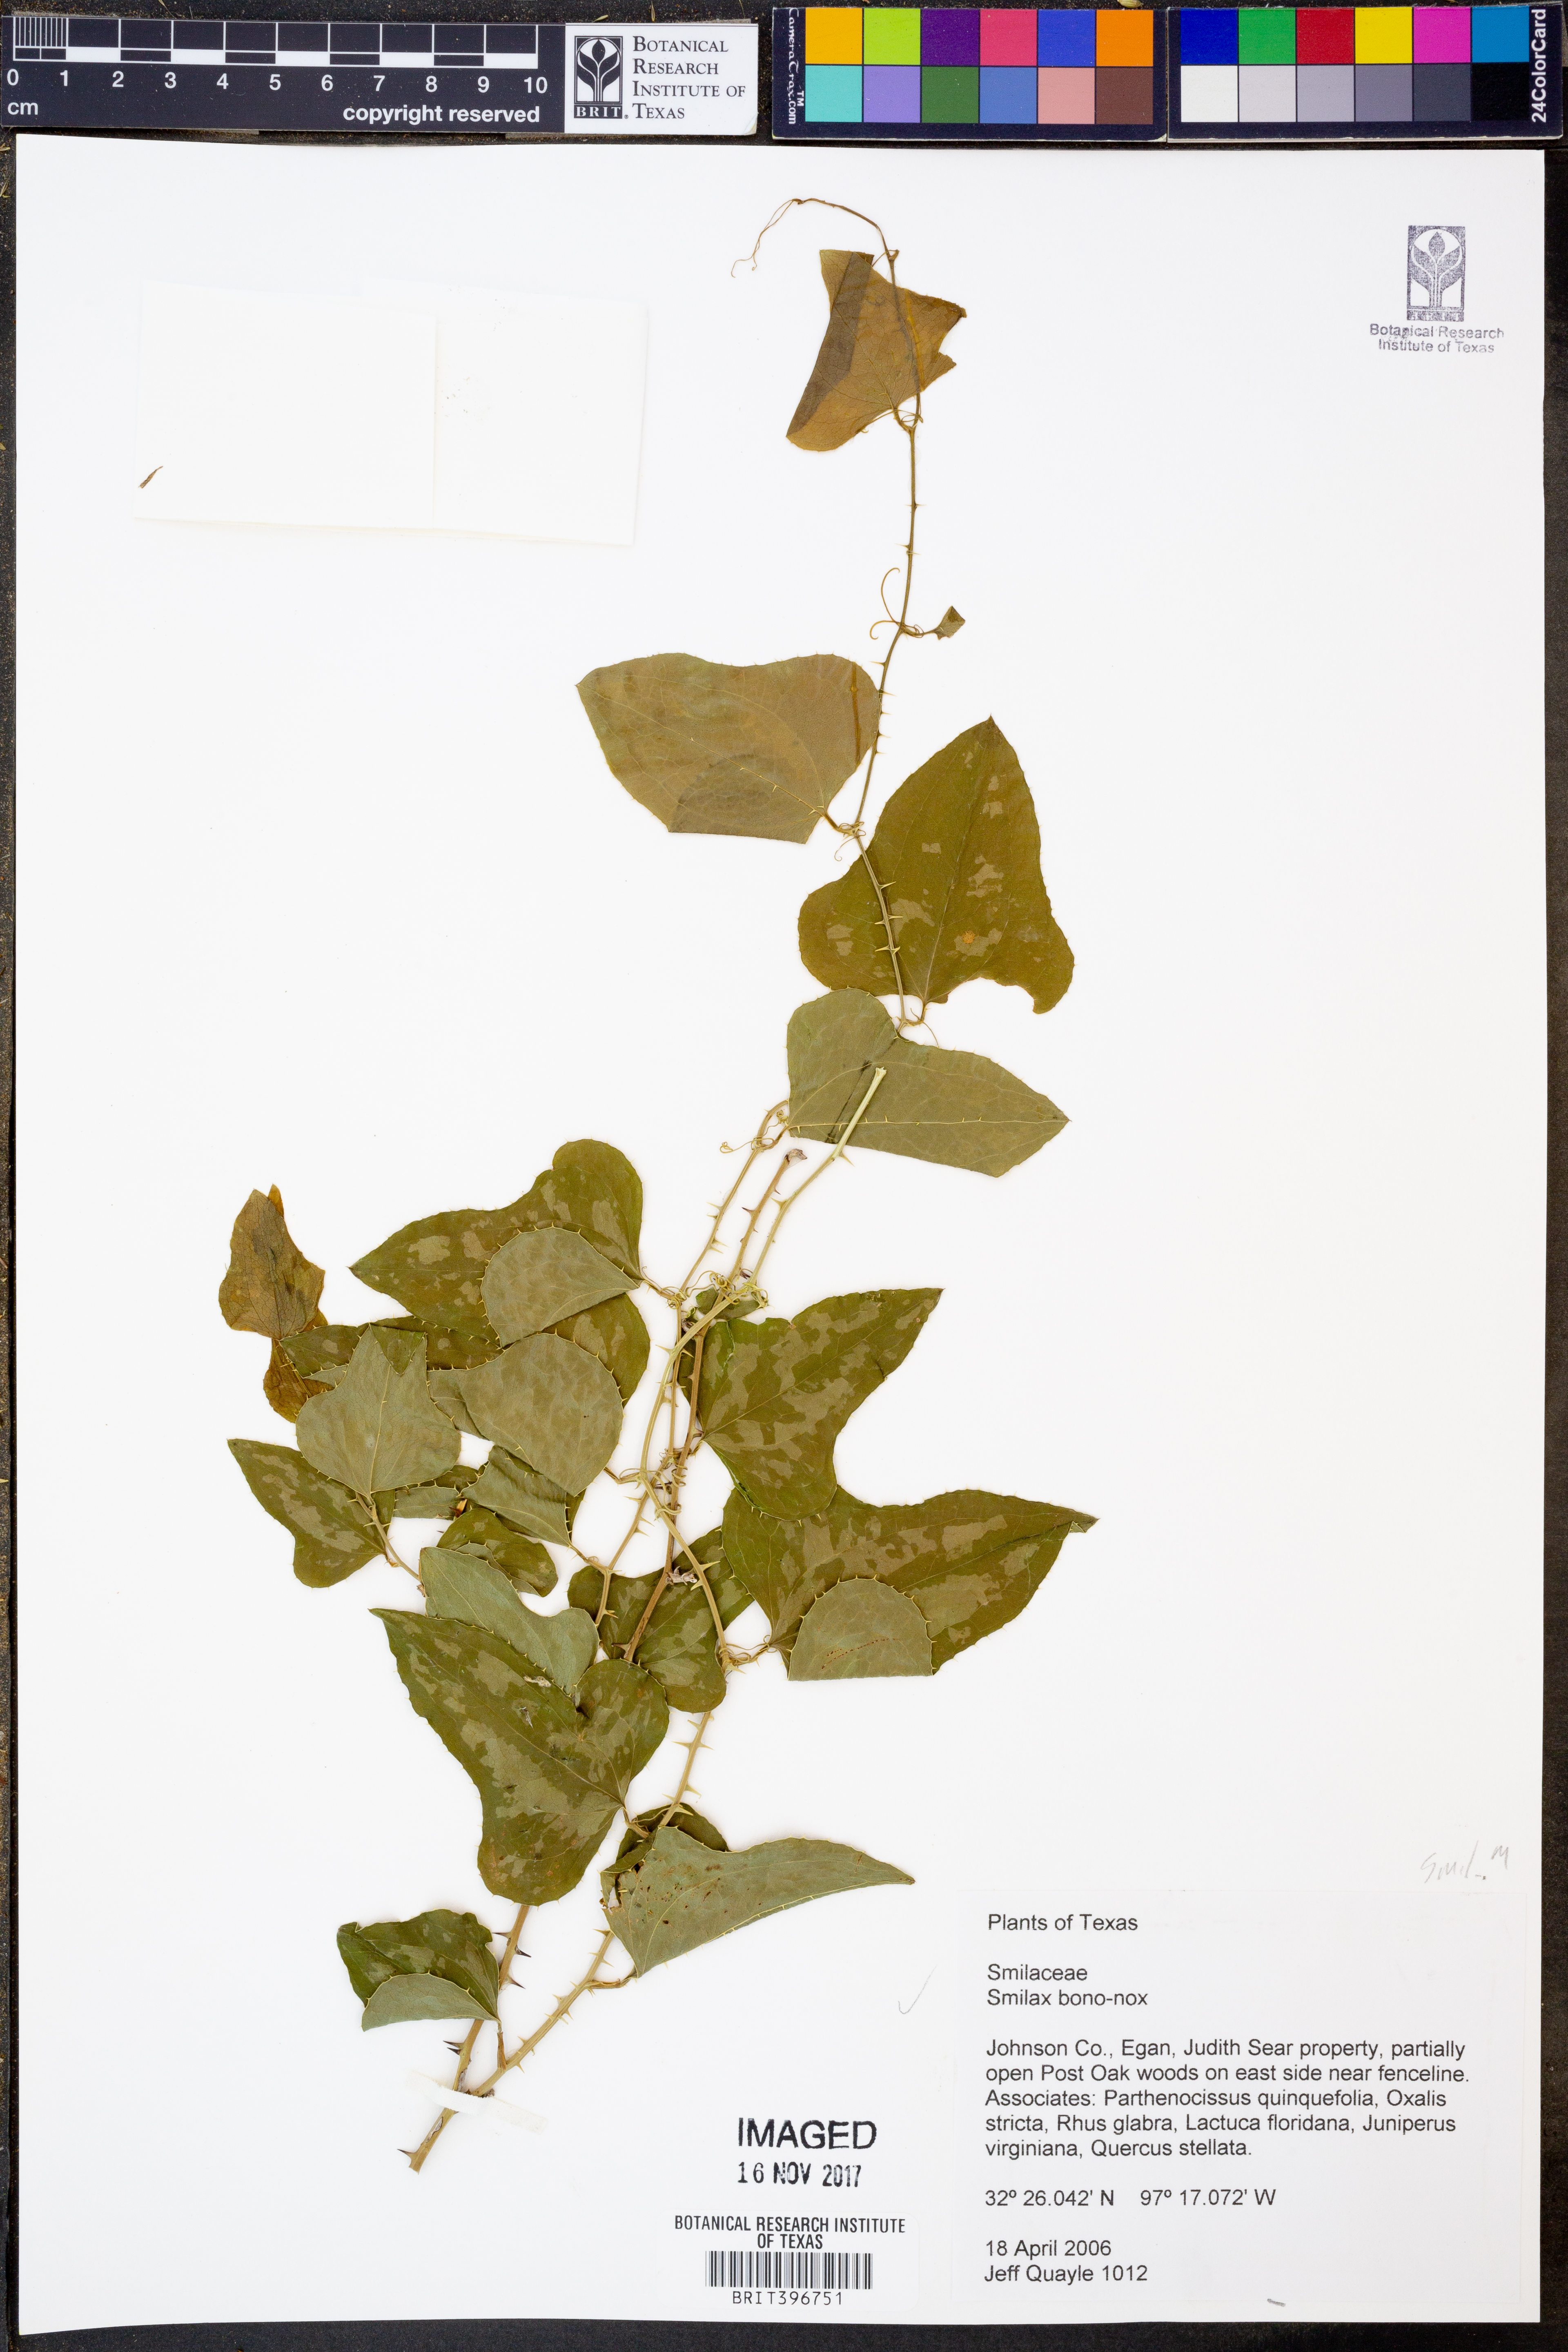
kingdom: Plantae
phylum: Tracheophyta
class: Liliopsida
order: Liliales
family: Smilacaceae
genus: Smilax
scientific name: Smilax bona-nox
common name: Catbrier
